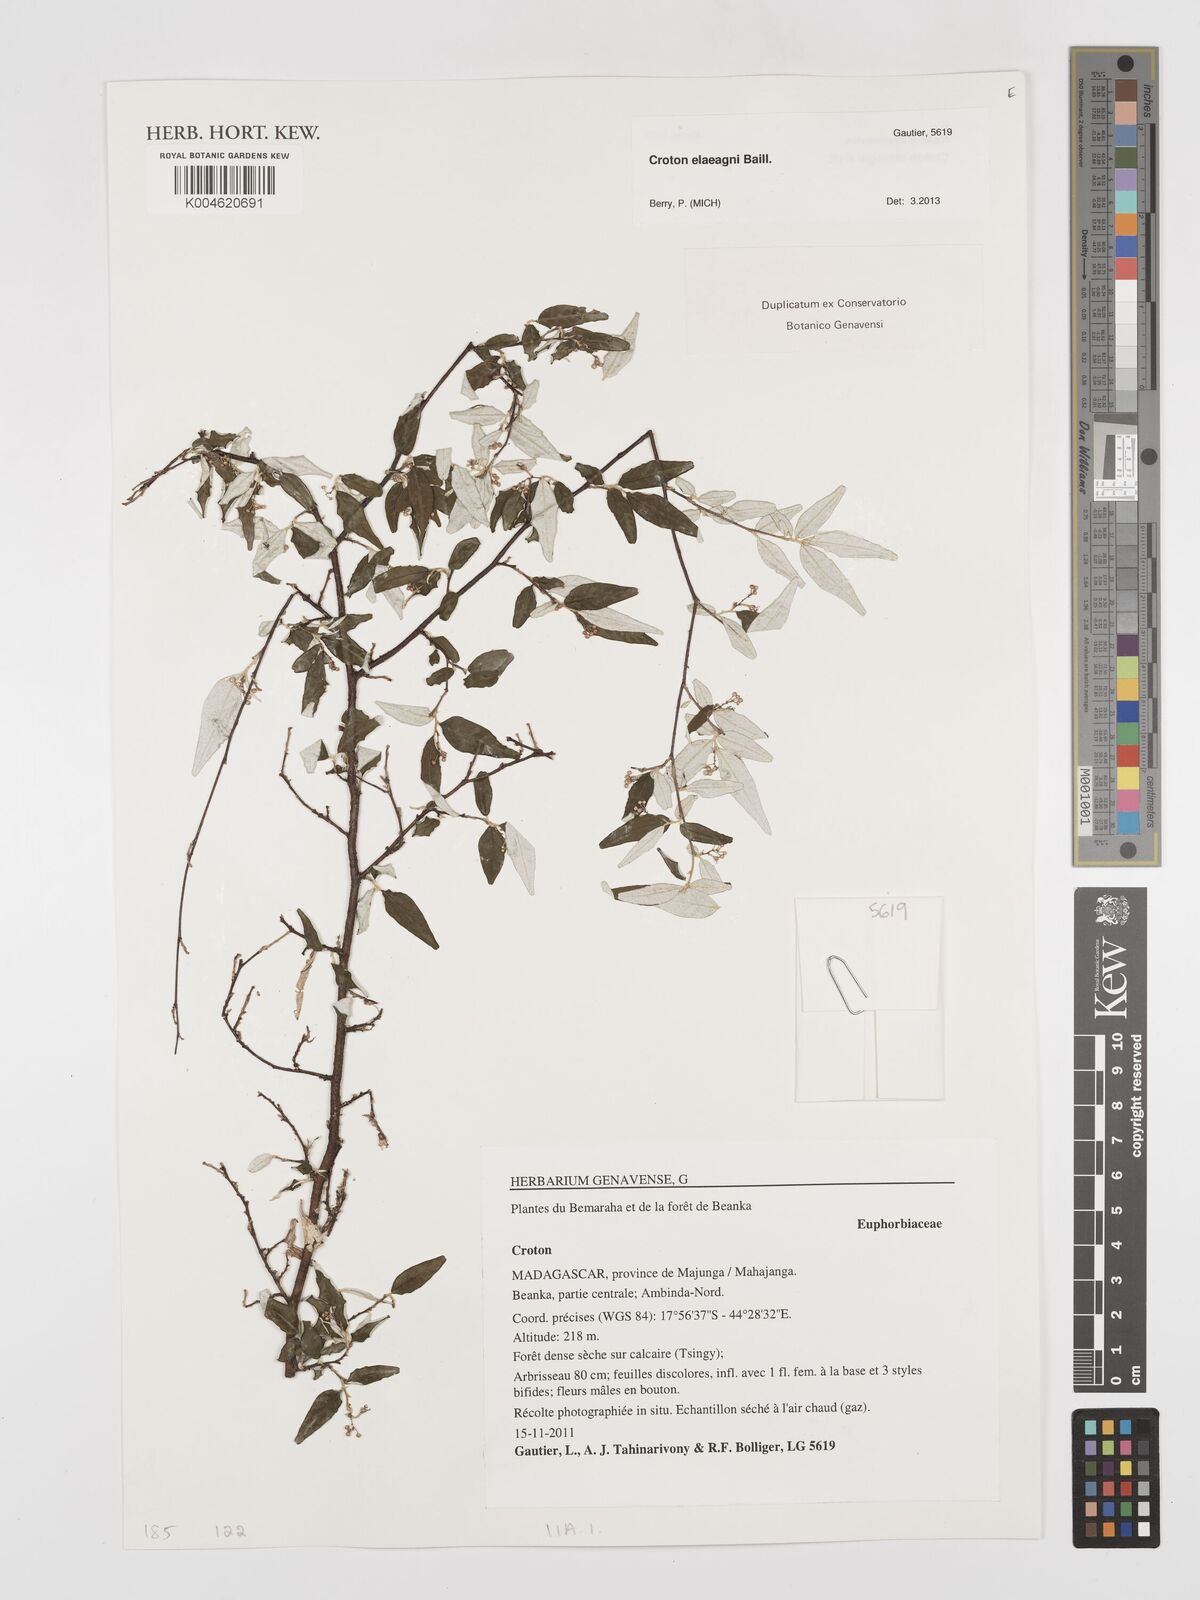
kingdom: Plantae
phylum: Tracheophyta
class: Magnoliopsida
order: Malpighiales
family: Euphorbiaceae
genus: Croton
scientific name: Croton
